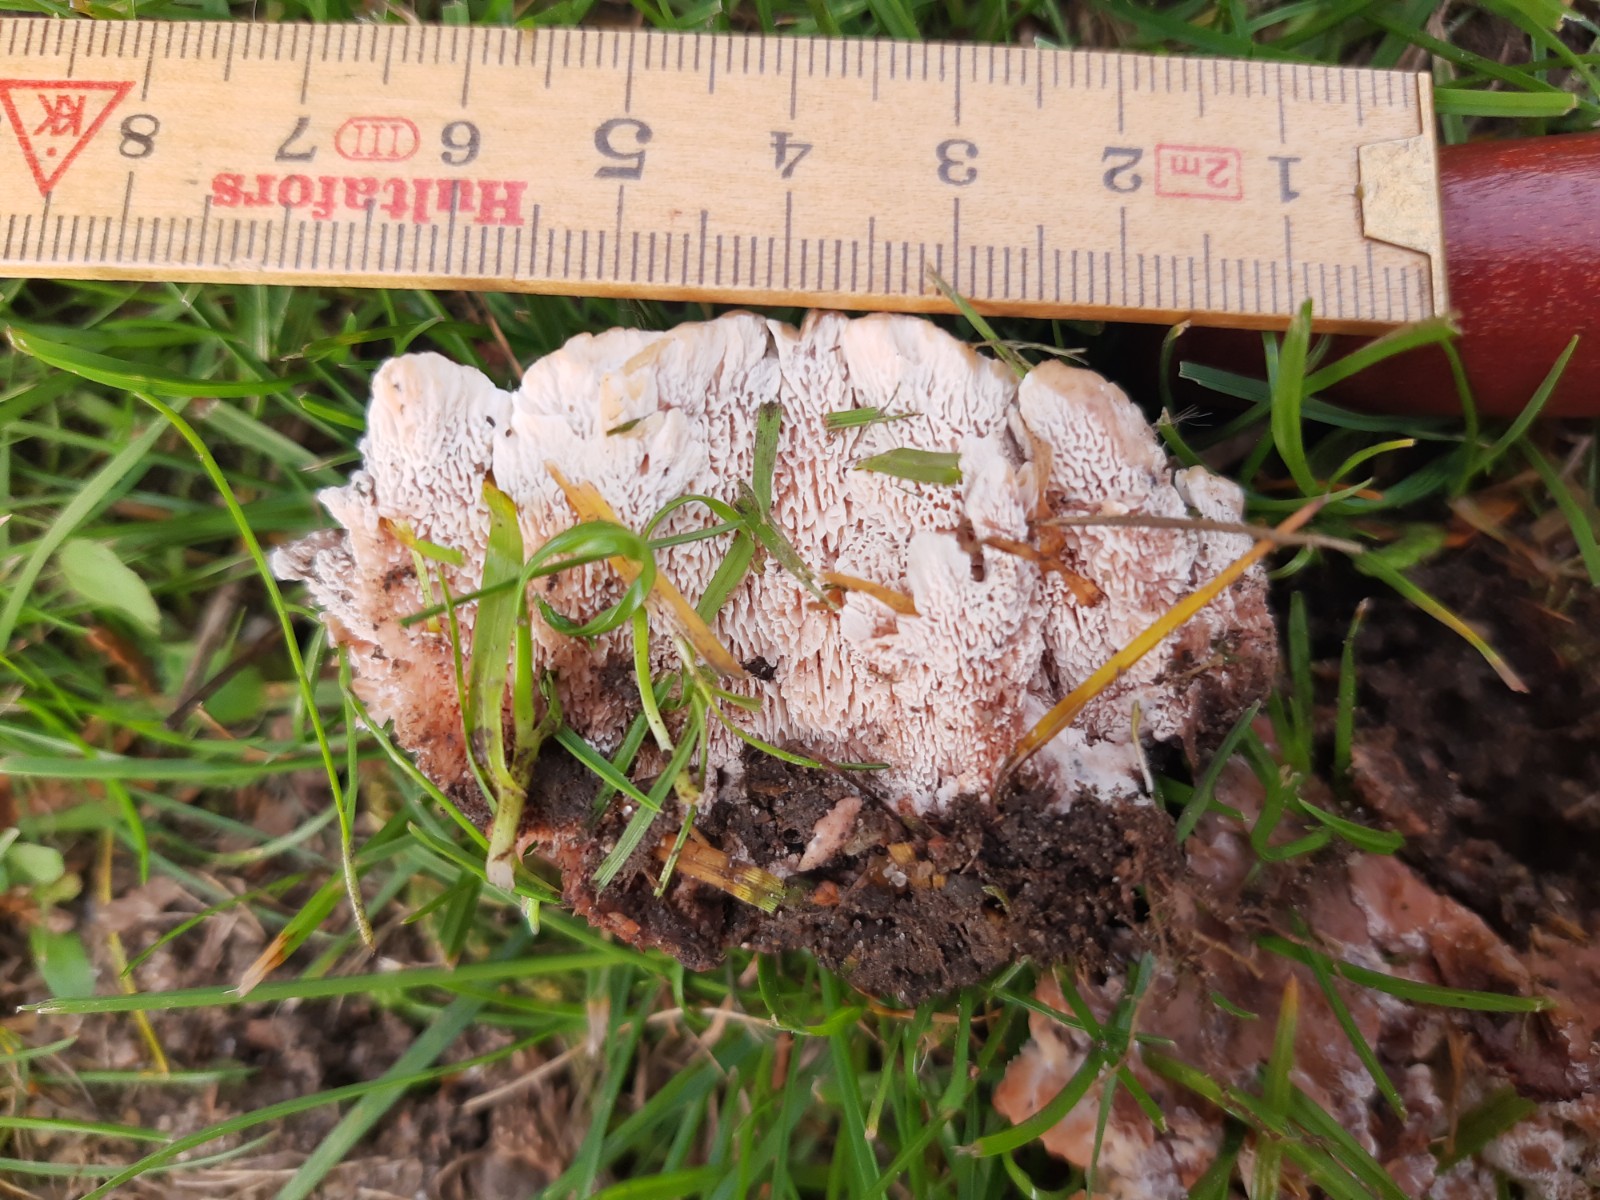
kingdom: Fungi
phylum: Basidiomycota
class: Agaricomycetes
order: Polyporales
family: Podoscyphaceae
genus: Abortiporus
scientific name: Abortiporus biennis
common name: rødmende pjalteporesvamp
